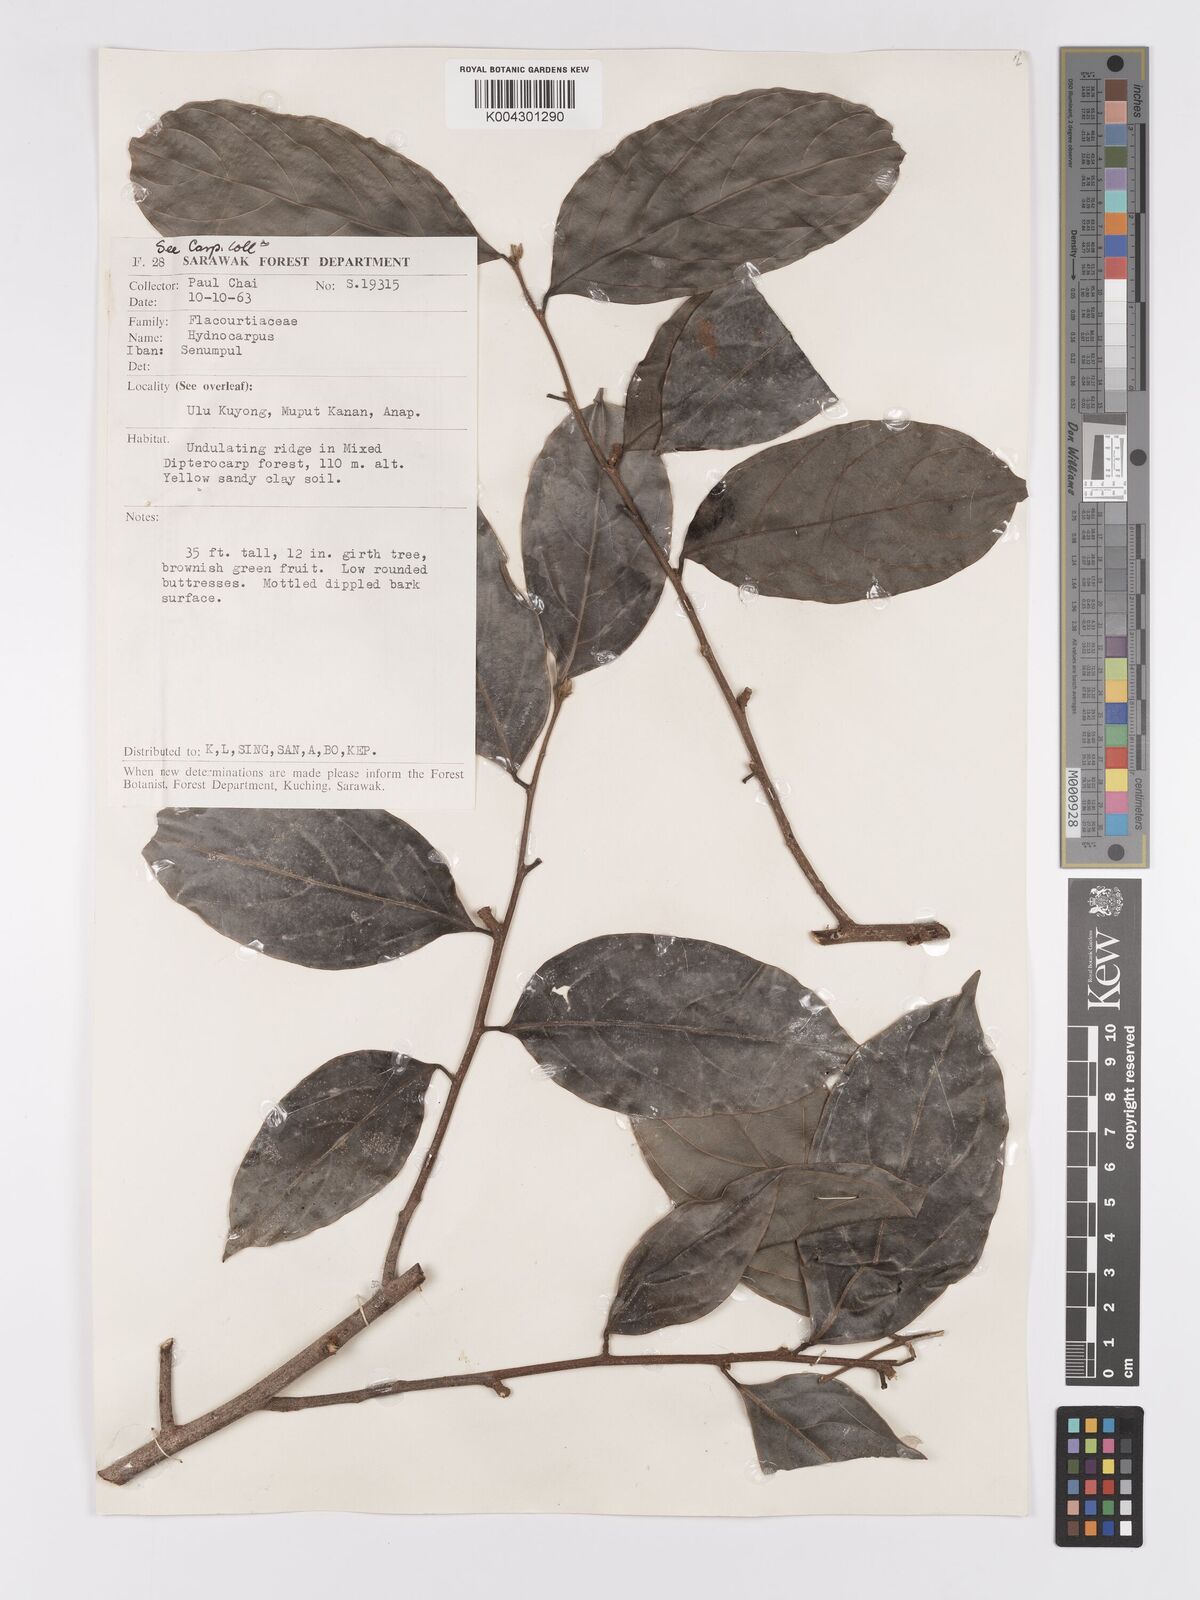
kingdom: Plantae
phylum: Tracheophyta
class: Magnoliopsida
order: Malpighiales
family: Achariaceae
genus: Hydnocarpus
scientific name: Hydnocarpus
